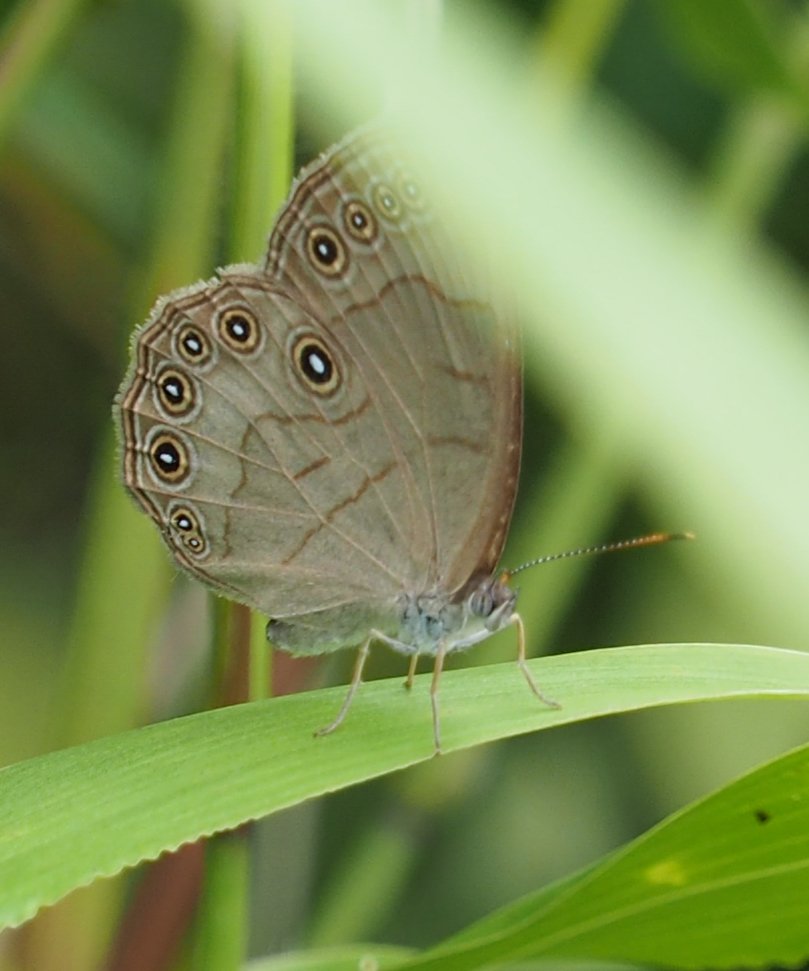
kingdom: Animalia
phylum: Arthropoda
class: Insecta
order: Lepidoptera
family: Nymphalidae
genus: Lethe
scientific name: Lethe eurydice
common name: Appalachian Eyed Brown
